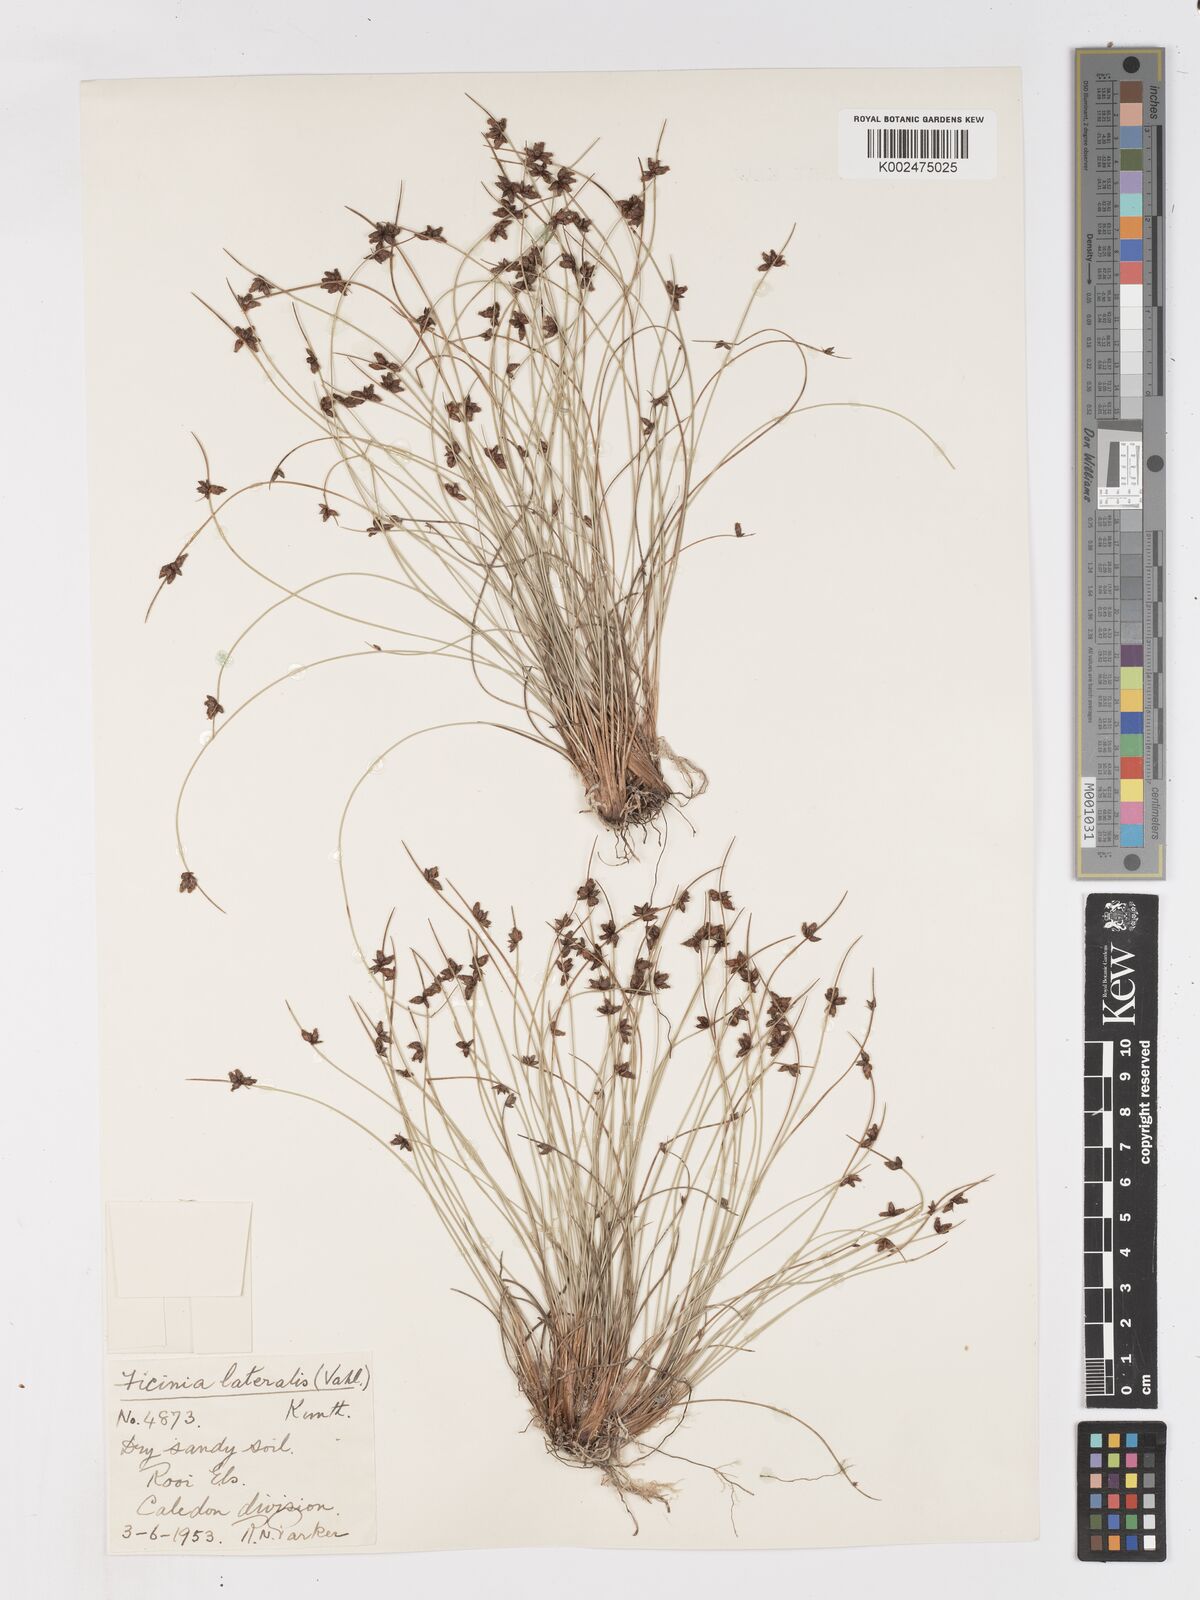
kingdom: Plantae
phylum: Tracheophyta
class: Liliopsida
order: Poales
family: Cyperaceae
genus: Ficinia
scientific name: Ficinia lateralis
